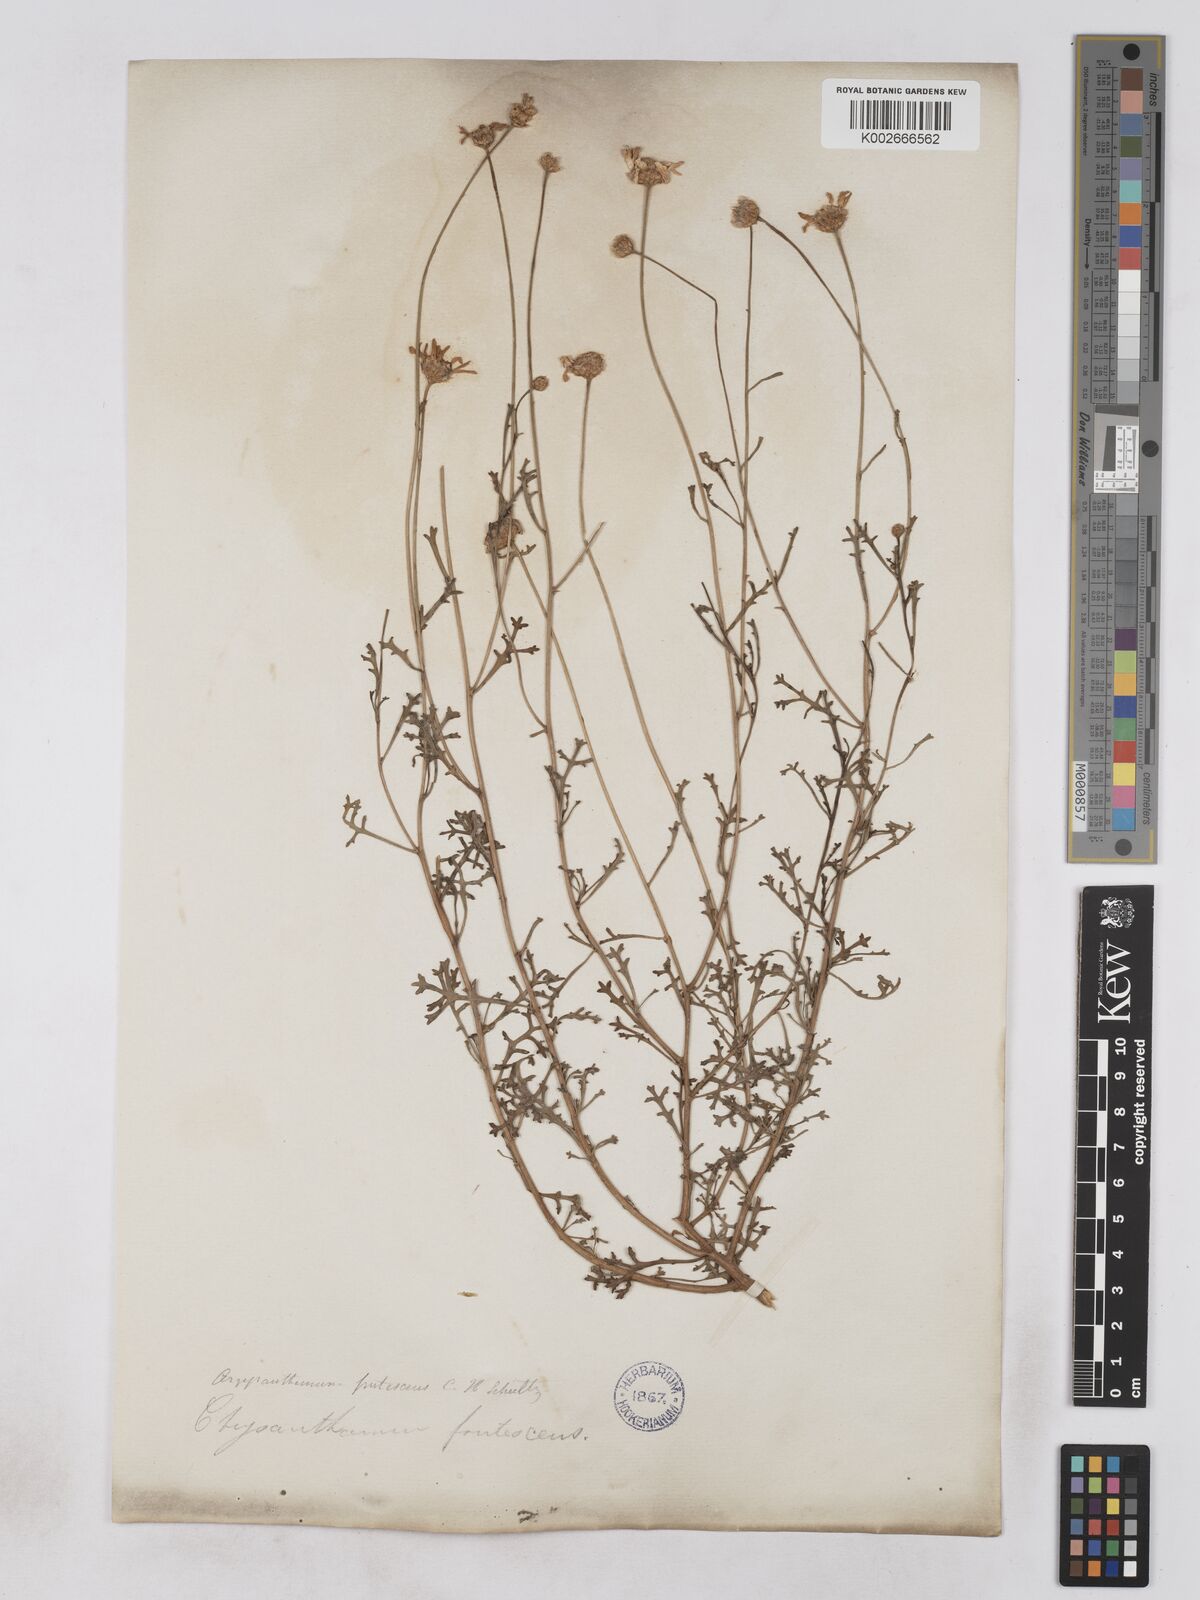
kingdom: Plantae
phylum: Tracheophyta
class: Magnoliopsida
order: Asterales
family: Asteraceae
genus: Argyranthemum
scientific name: Argyranthemum frutescens
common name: Paris daisy
